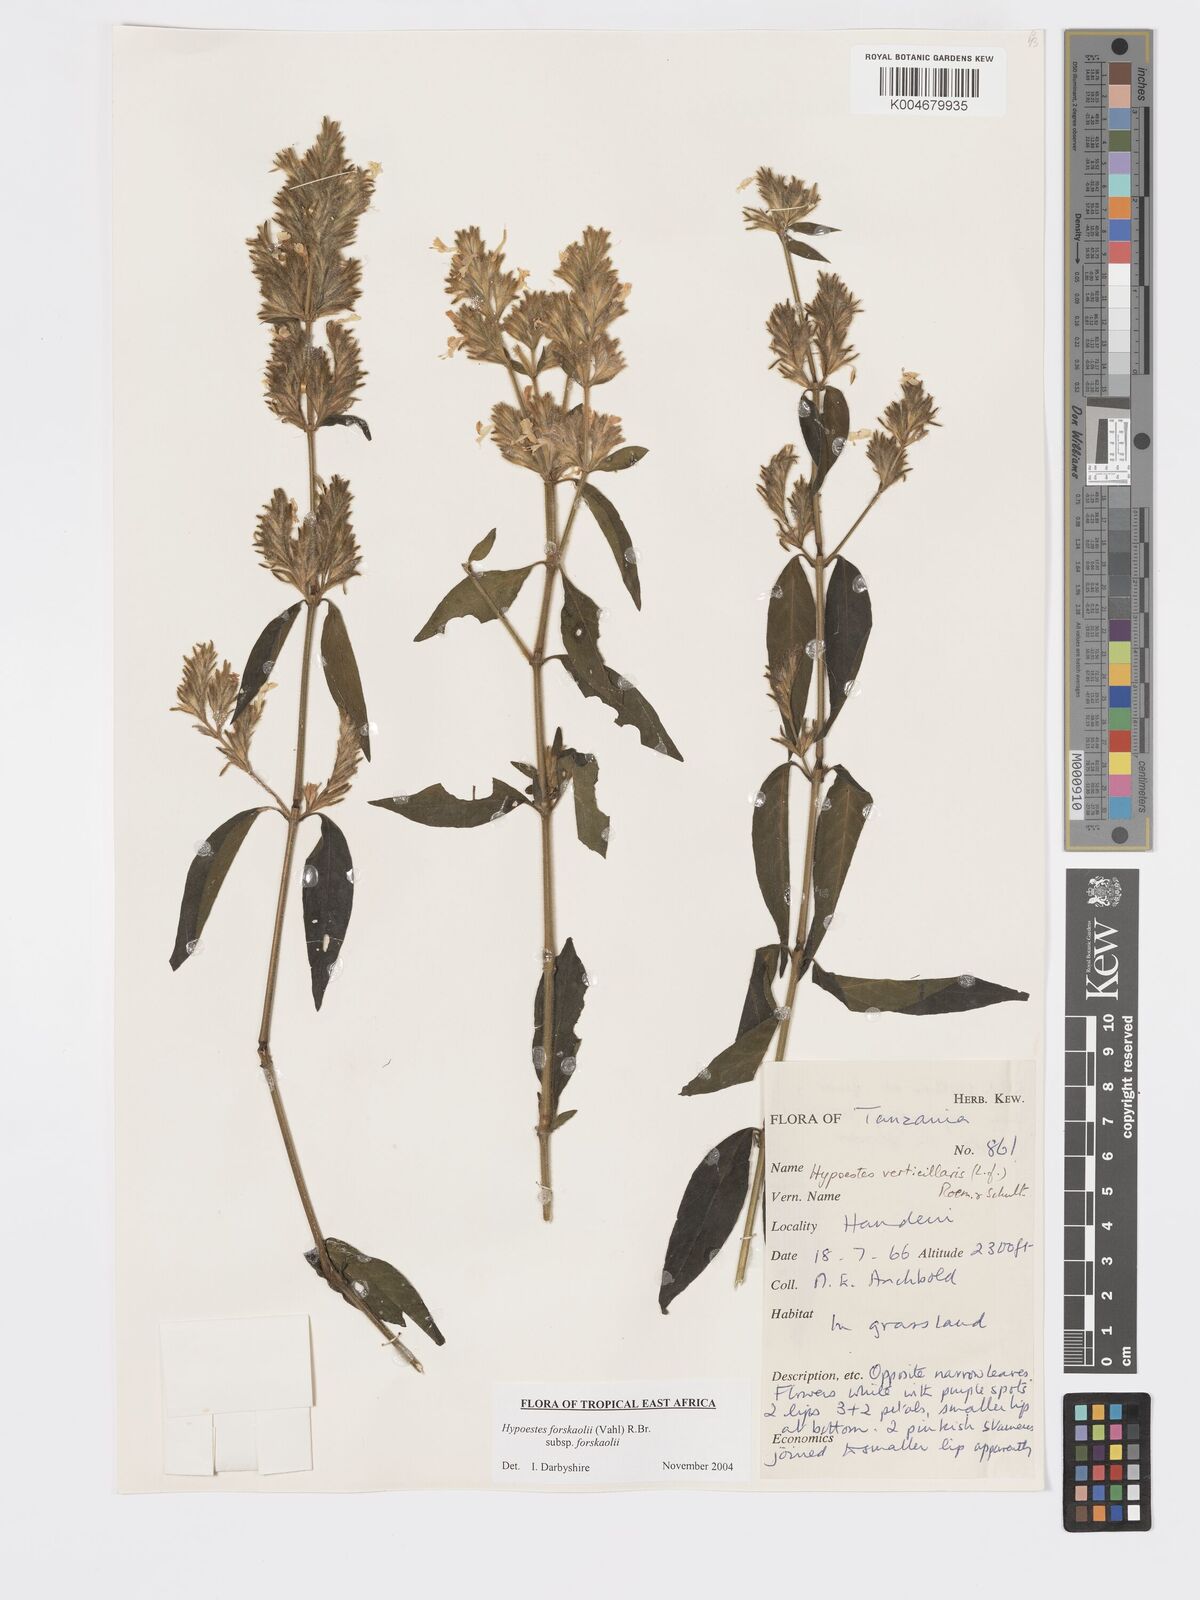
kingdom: Plantae
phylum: Tracheophyta
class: Magnoliopsida
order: Lamiales
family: Acanthaceae
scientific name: Acanthaceae
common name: Acanthaceae
